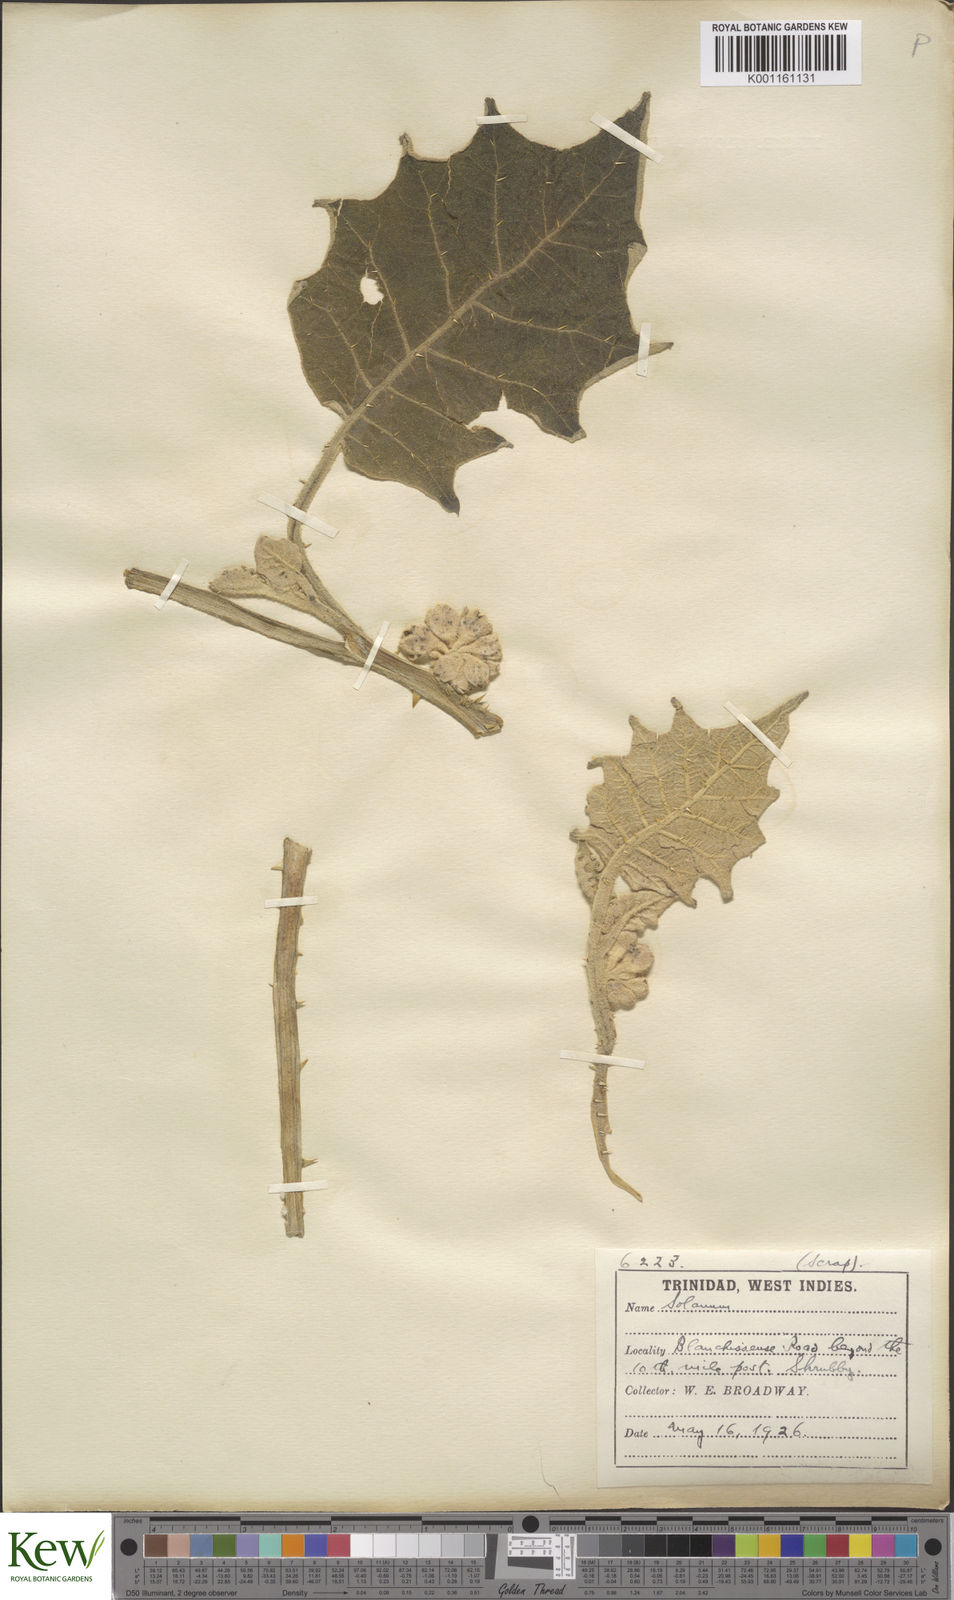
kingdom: Plantae
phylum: Tracheophyta
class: Magnoliopsida
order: Solanales
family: Solanaceae
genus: Solanum
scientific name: Solanum
